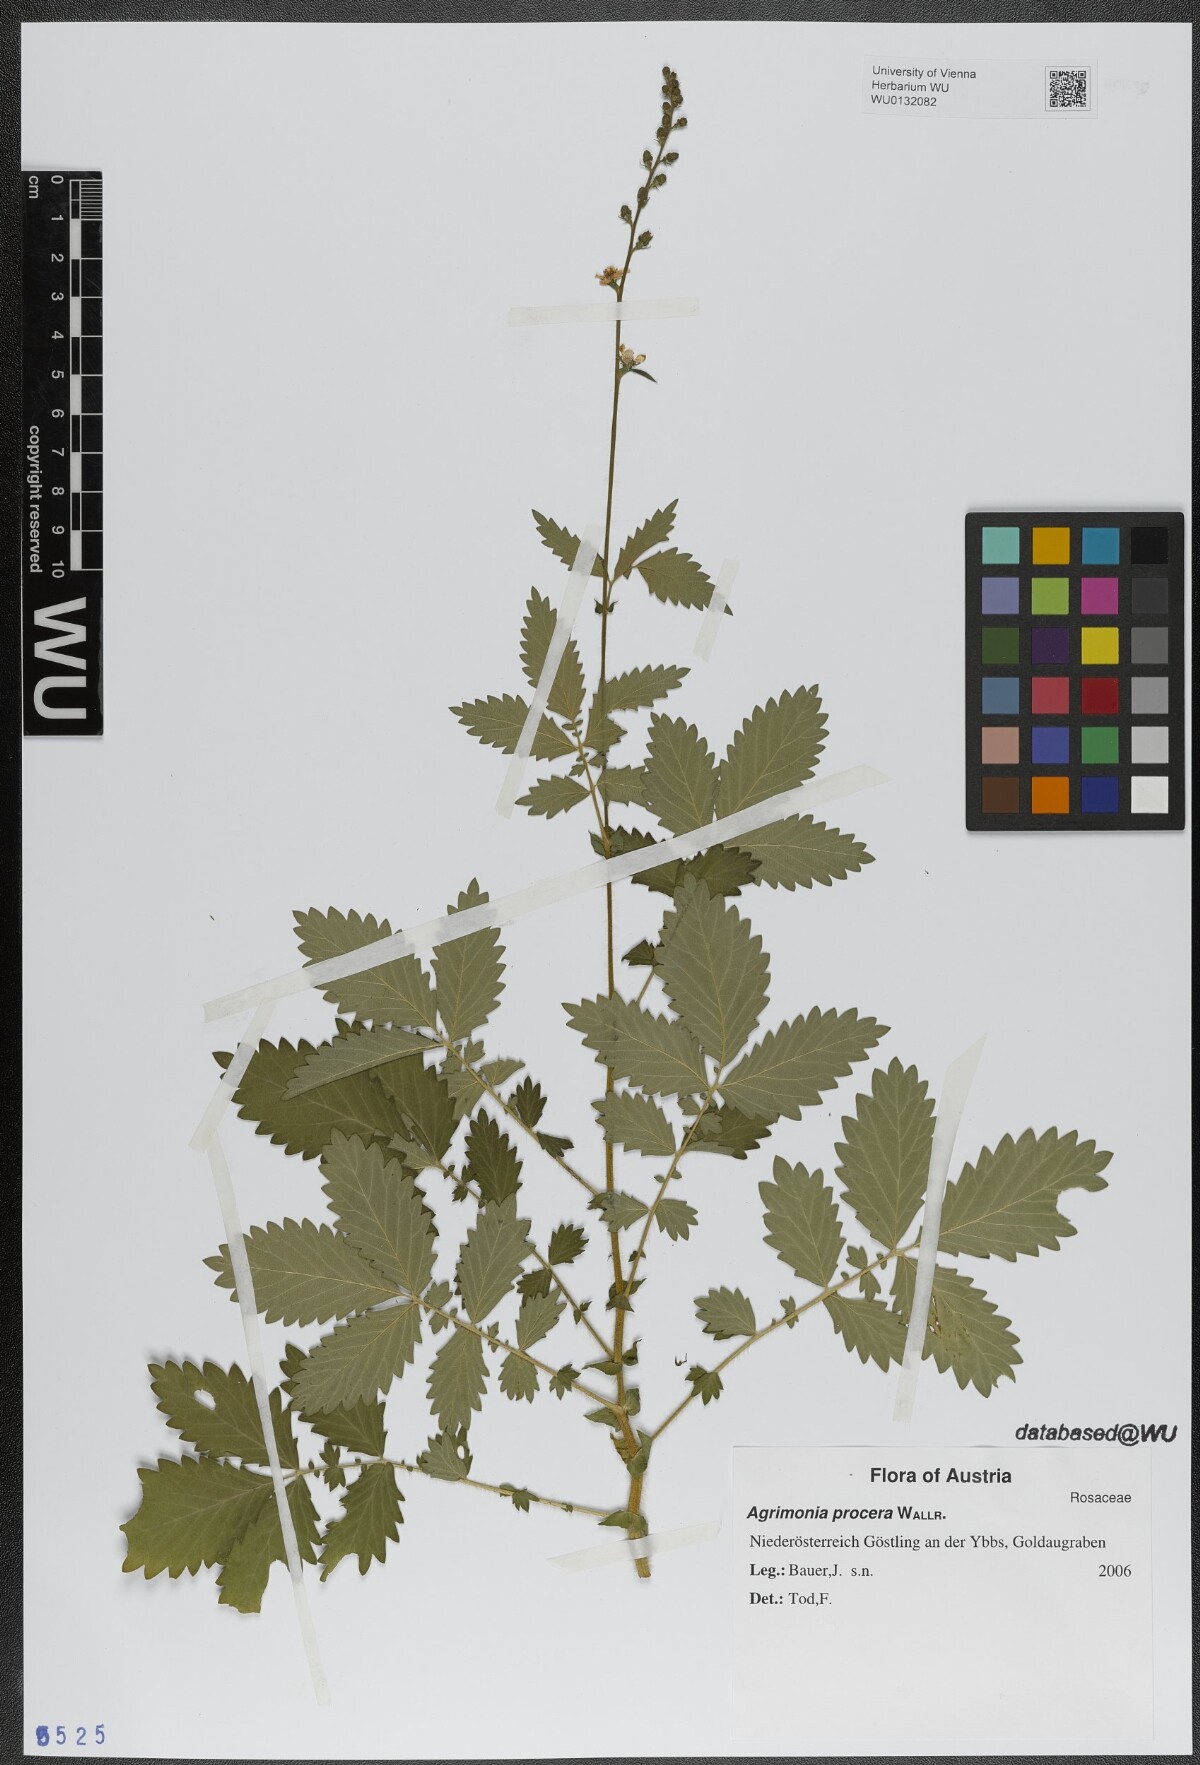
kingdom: Plantae
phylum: Tracheophyta
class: Magnoliopsida
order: Rosales
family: Rosaceae
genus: Agrimonia
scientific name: Agrimonia procera
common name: Fragrant agrimony
